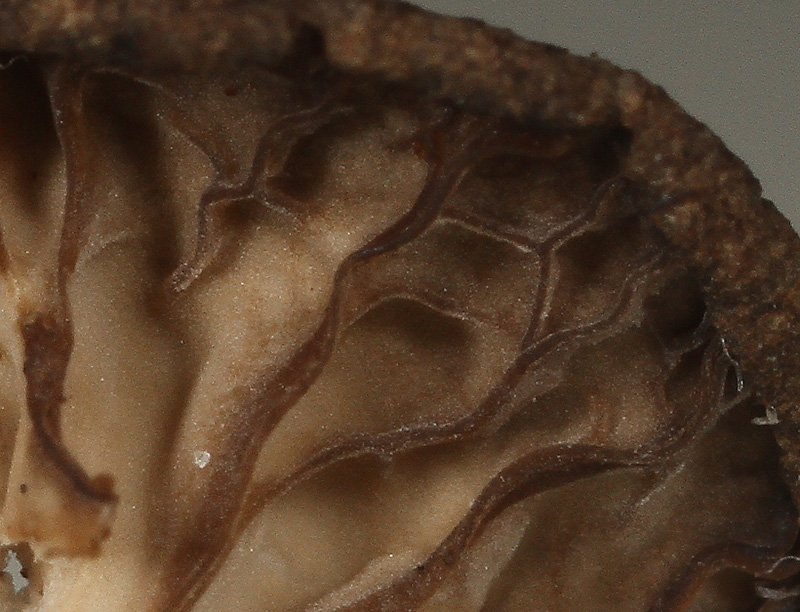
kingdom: Fungi
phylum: Basidiomycota
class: Agaricomycetes
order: Agaricales
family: Hygrophoraceae
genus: Arrhenia
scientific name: Arrhenia peltigerina
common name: skjoldlav-fontænehat
